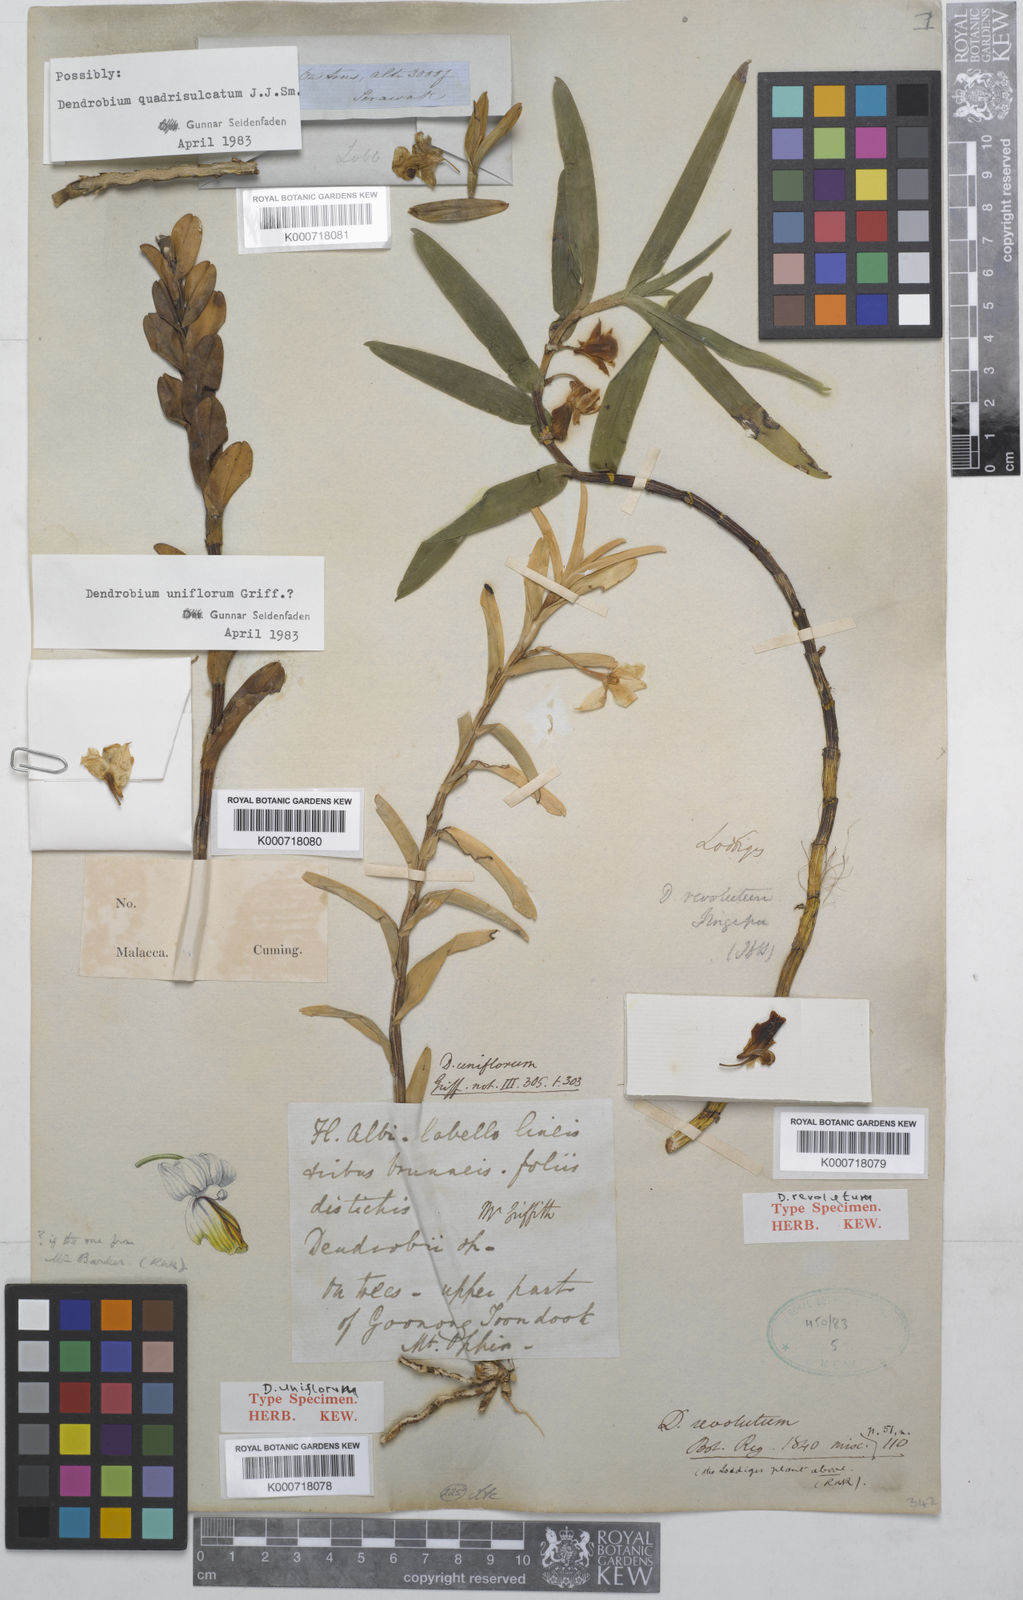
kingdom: Plantae
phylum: Tracheophyta
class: Liliopsida
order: Asparagales
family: Orchidaceae
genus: Dendrobium
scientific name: Dendrobium uniflorum
